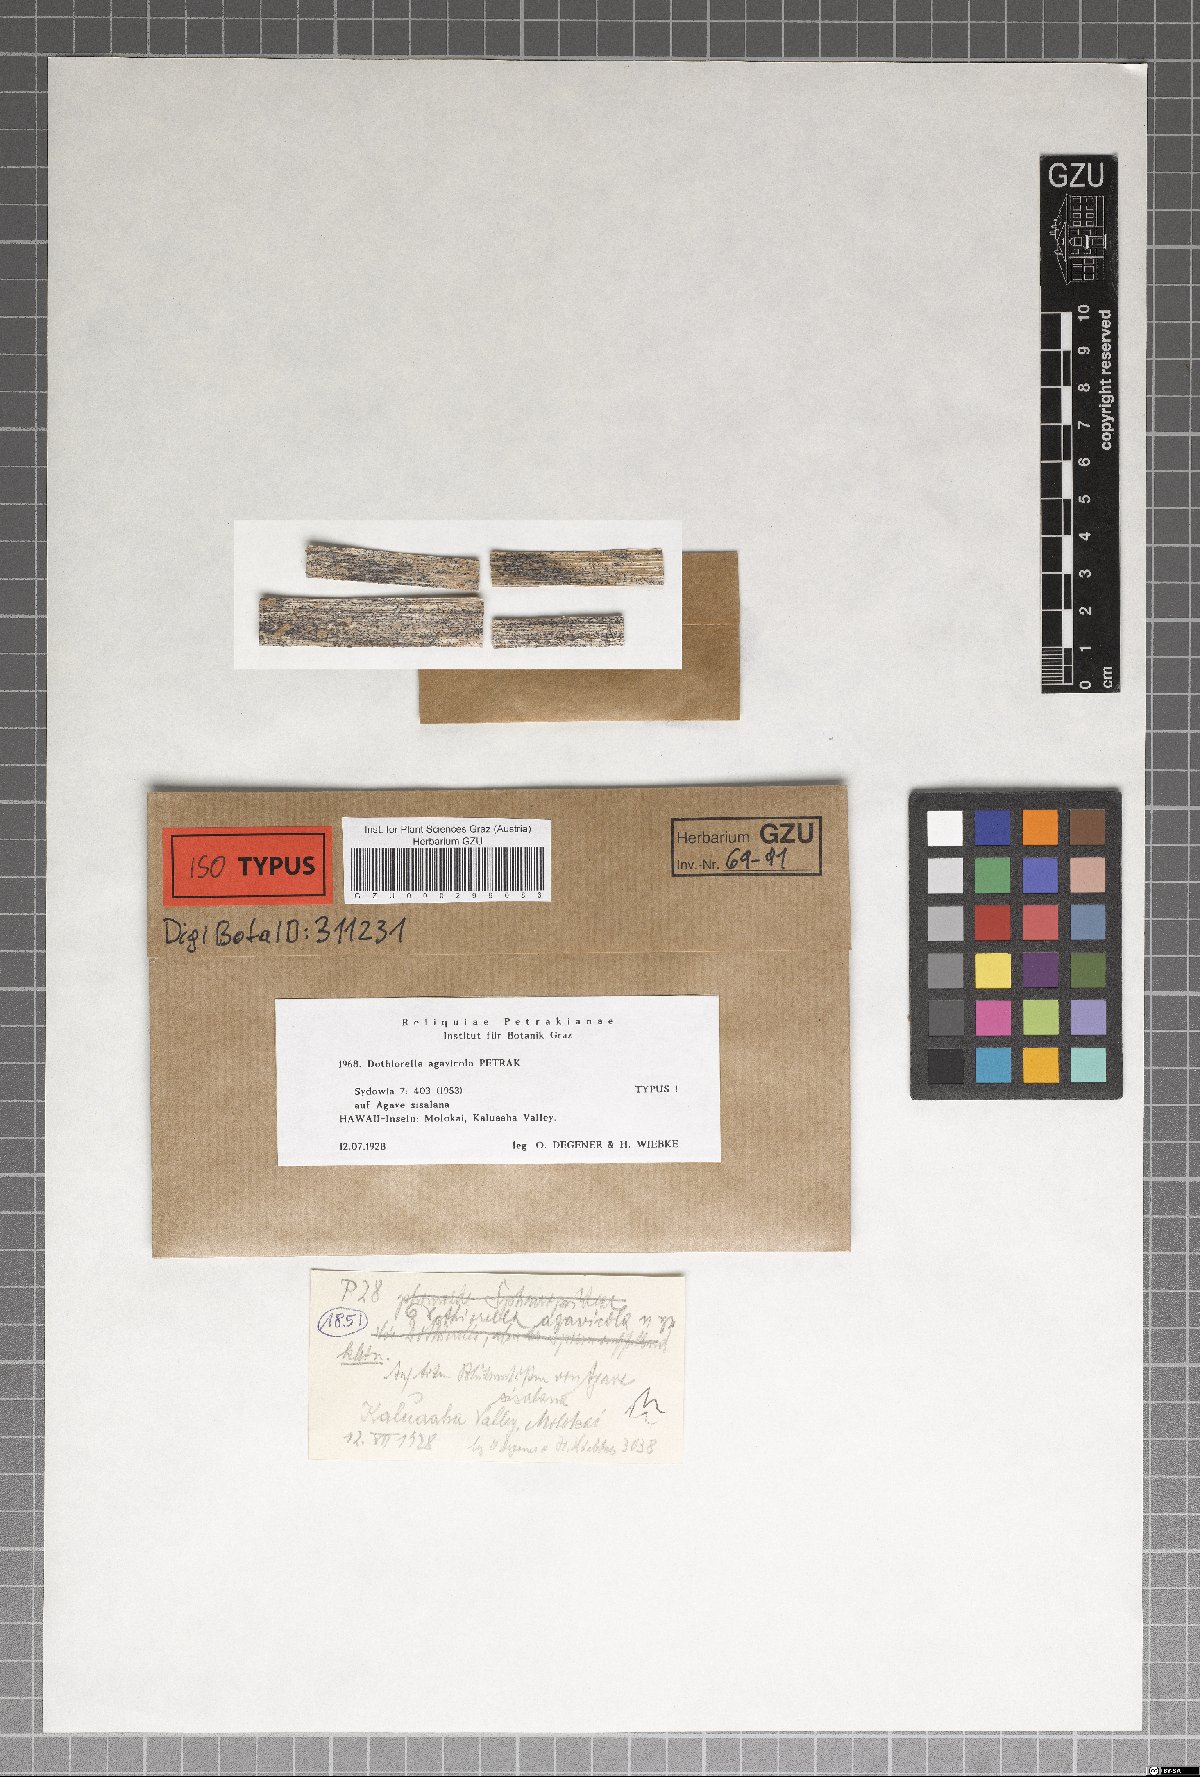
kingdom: Fungi
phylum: Ascomycota
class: Dothideomycetes
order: Botryosphaeriales
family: Botryosphaeriaceae
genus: Dothiorella
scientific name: Dothiorella agavicola
